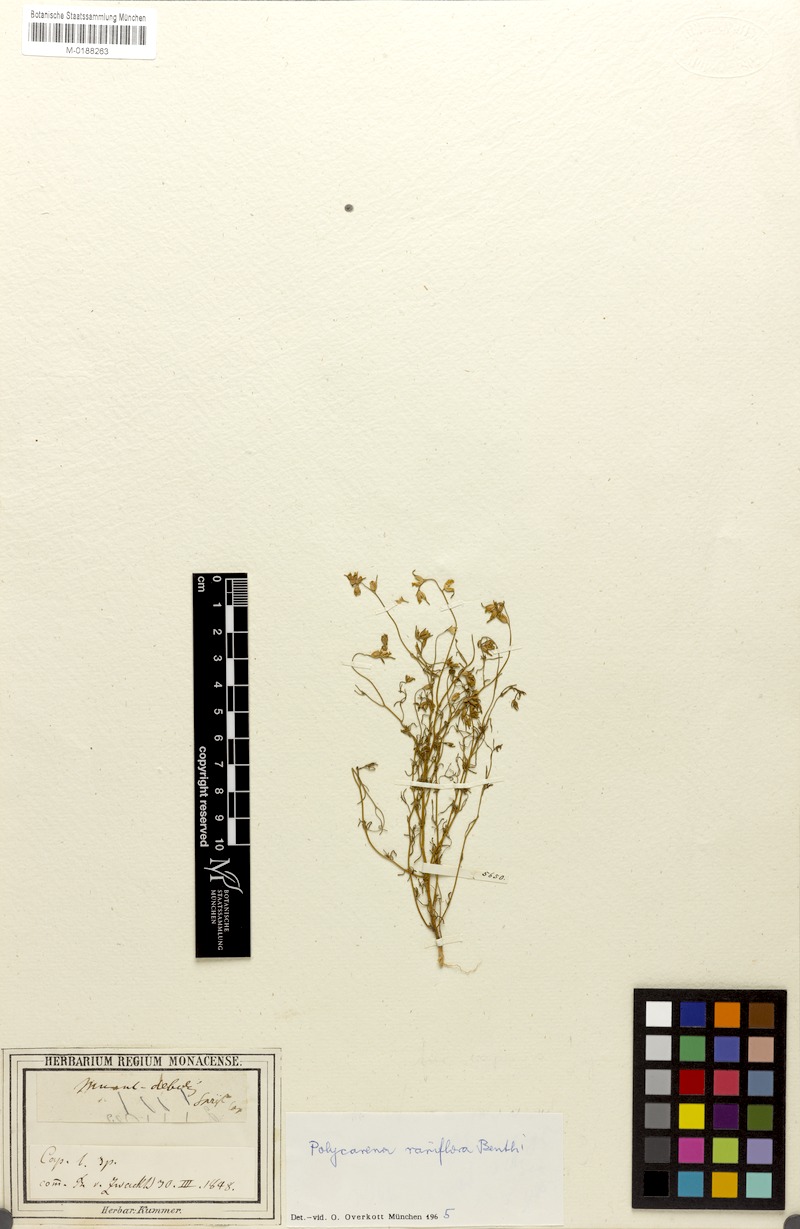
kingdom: Plantae
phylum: Tracheophyta
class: Magnoliopsida
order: Lamiales
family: Scrophulariaceae
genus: Polycarena
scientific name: Polycarena rariflora
